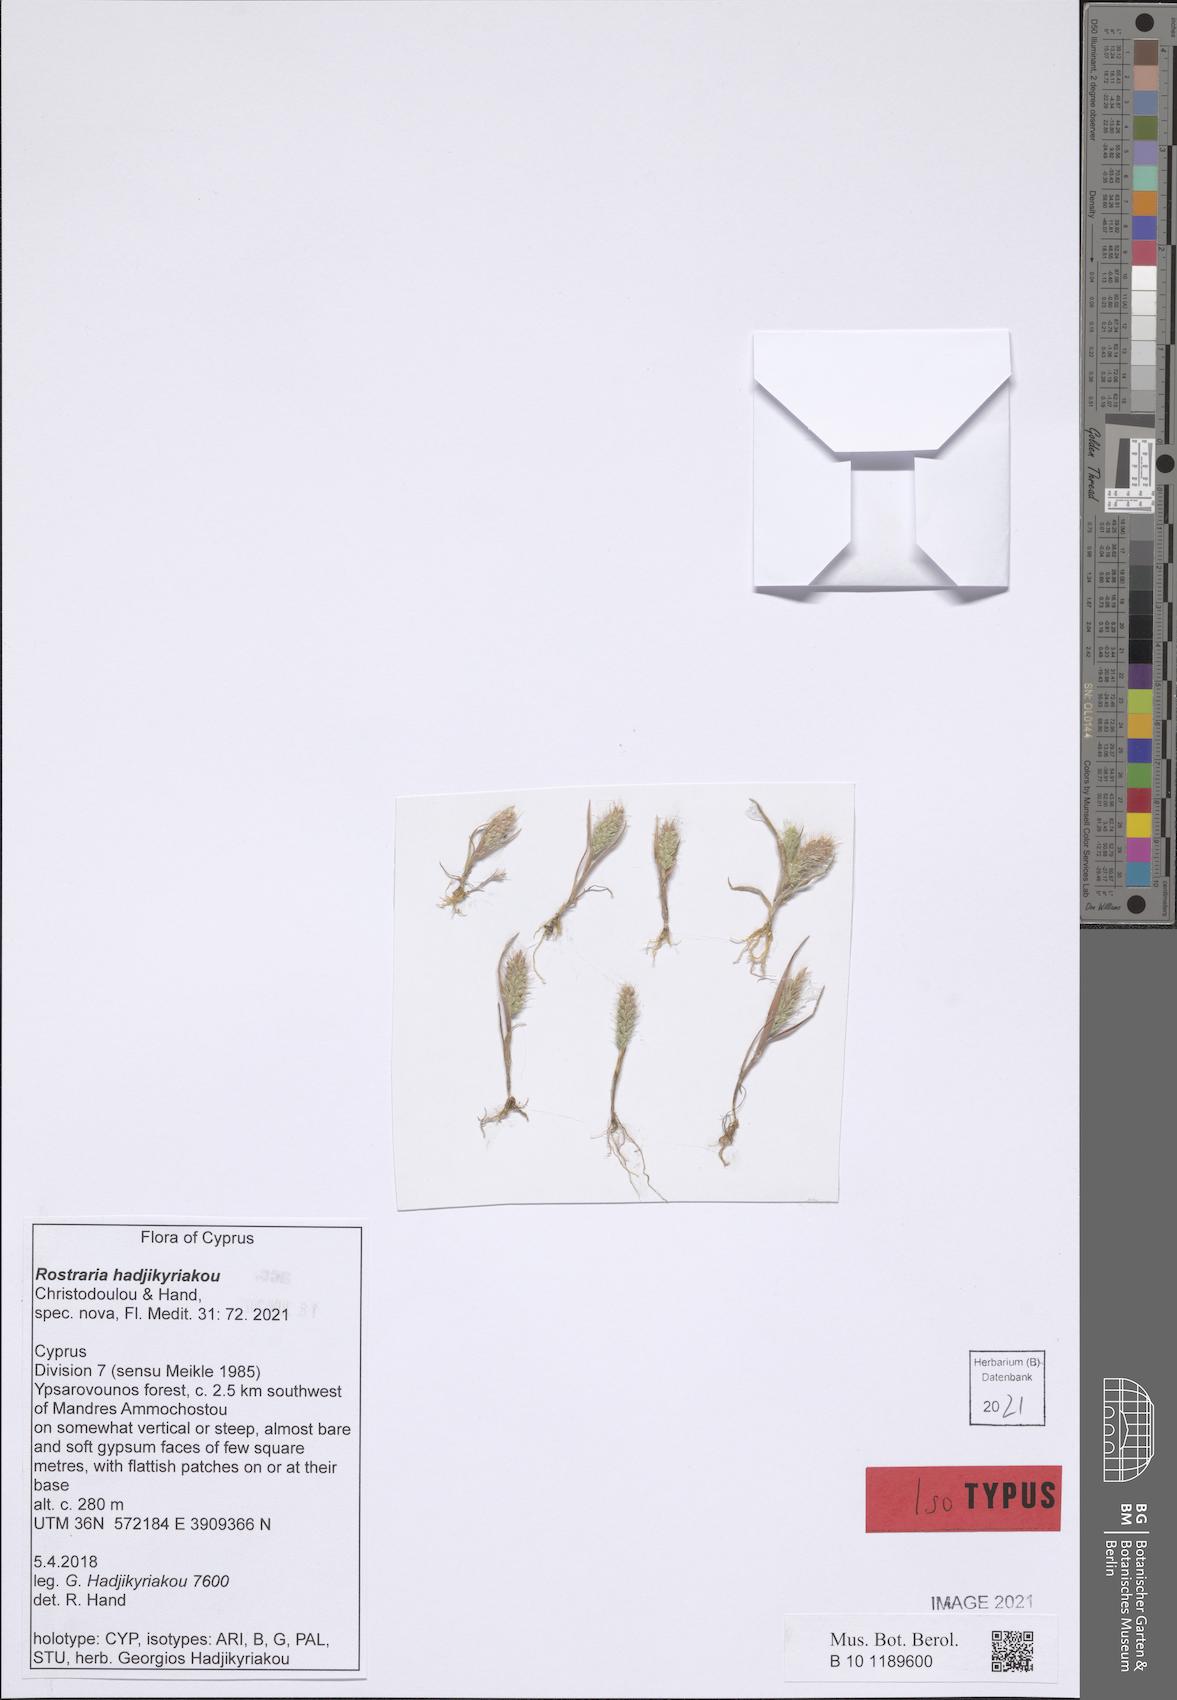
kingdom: Plantae
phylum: Tracheophyta
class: Liliopsida
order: Poales
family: Poaceae
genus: Rostraria
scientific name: Rostraria
